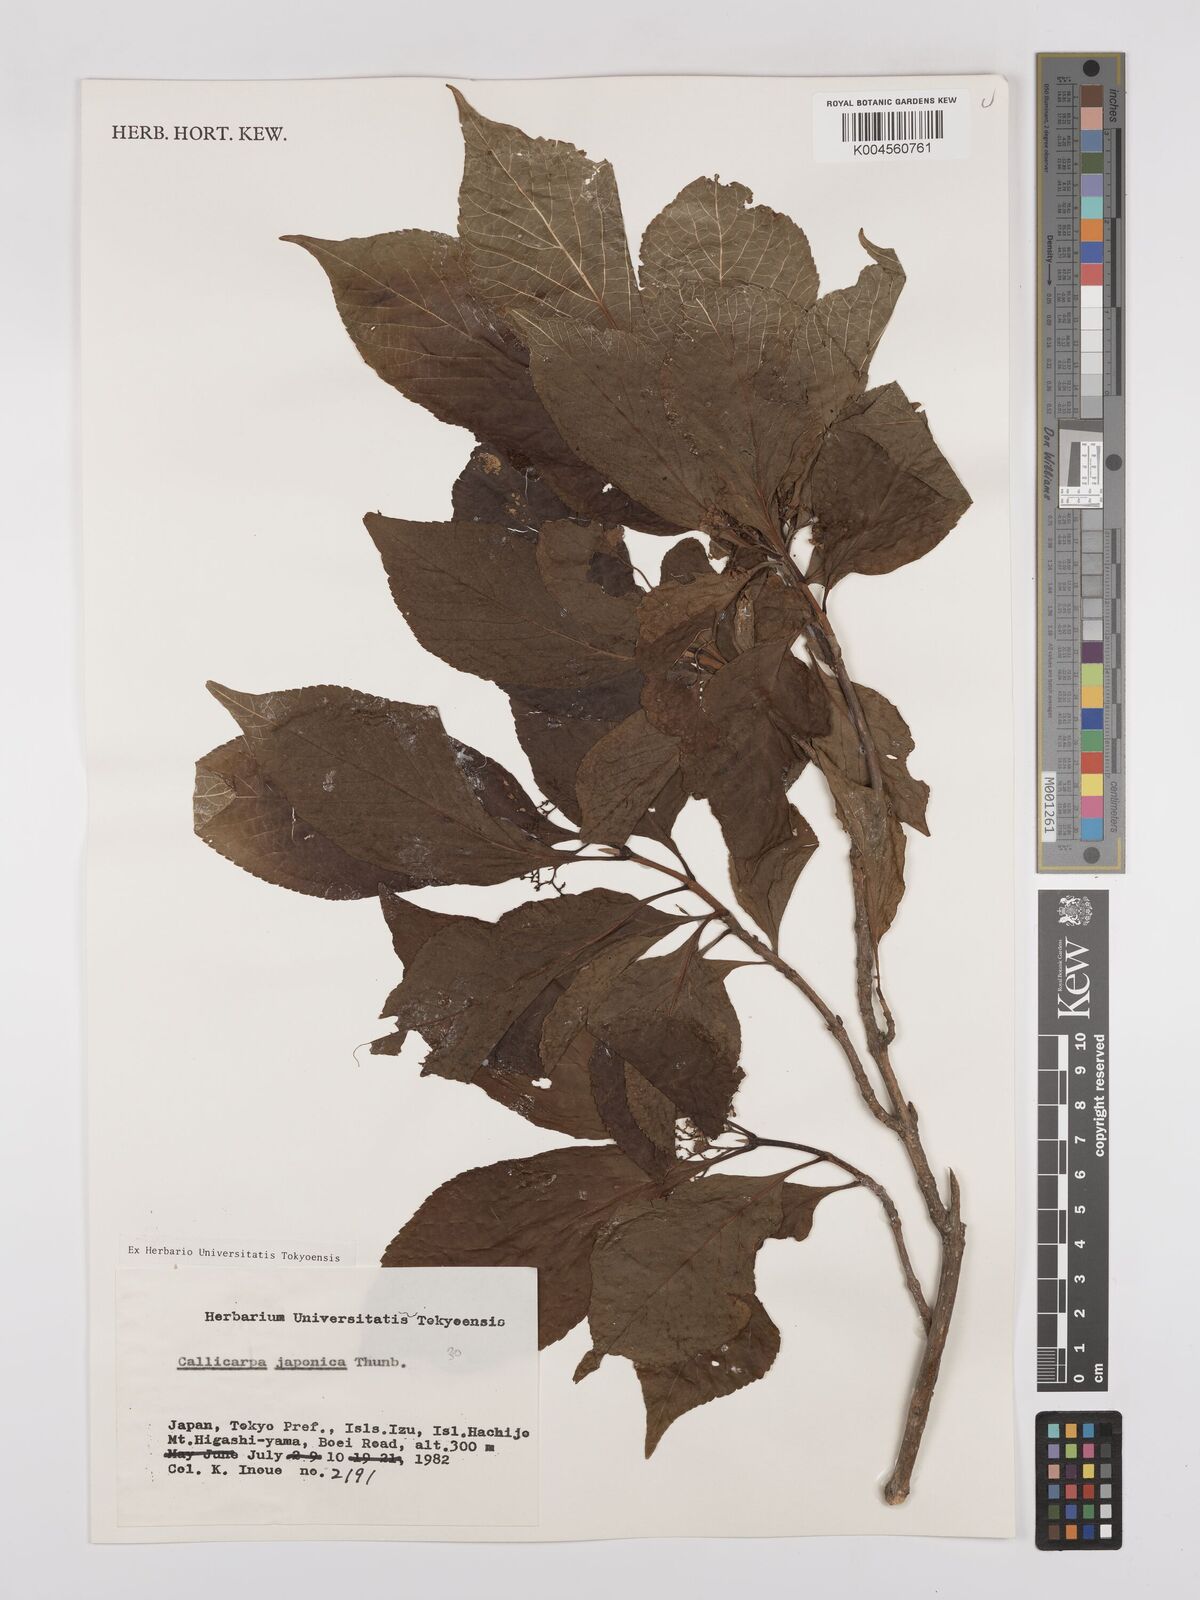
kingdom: Plantae
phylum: Tracheophyta
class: Magnoliopsida
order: Lamiales
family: Lamiaceae
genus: Callicarpa
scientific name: Callicarpa japonica
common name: Japanese beauty-berry
